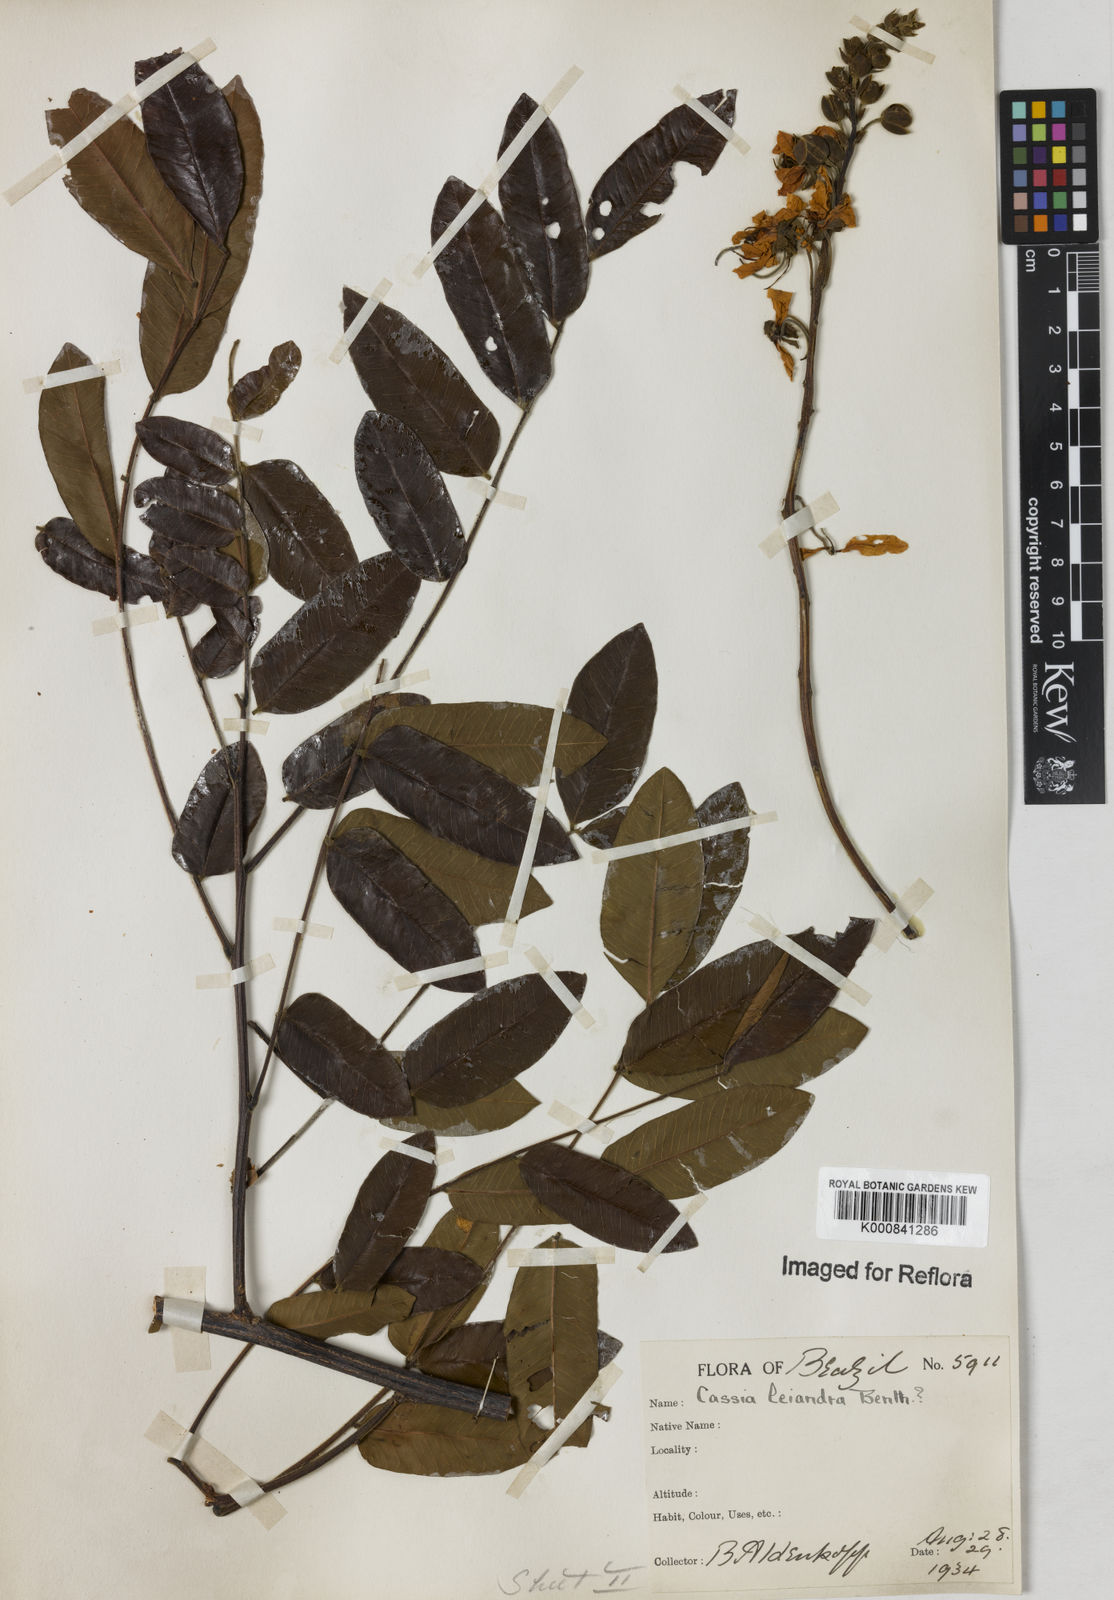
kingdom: Plantae
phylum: Tracheophyta
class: Magnoliopsida
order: Fabales
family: Fabaceae
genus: Cassia
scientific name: Cassia leiandra
